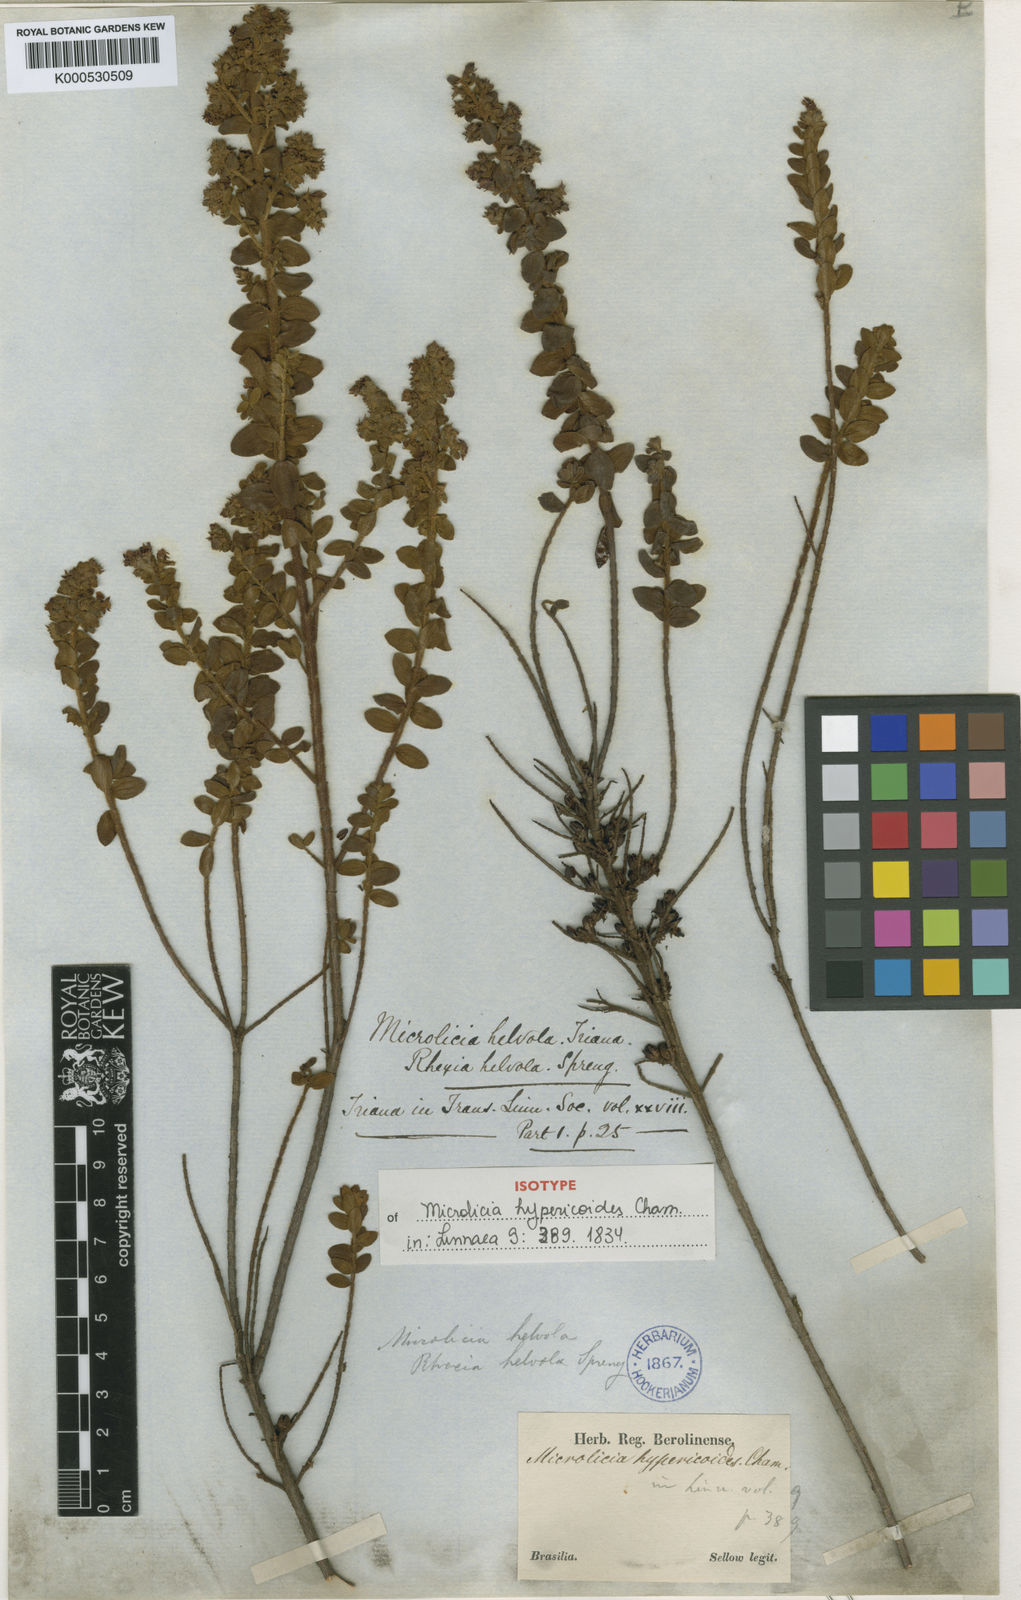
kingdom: Plantae
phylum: Tracheophyta
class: Magnoliopsida
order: Myrtales
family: Melastomataceae
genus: Microlicia
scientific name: Microlicia helvola
